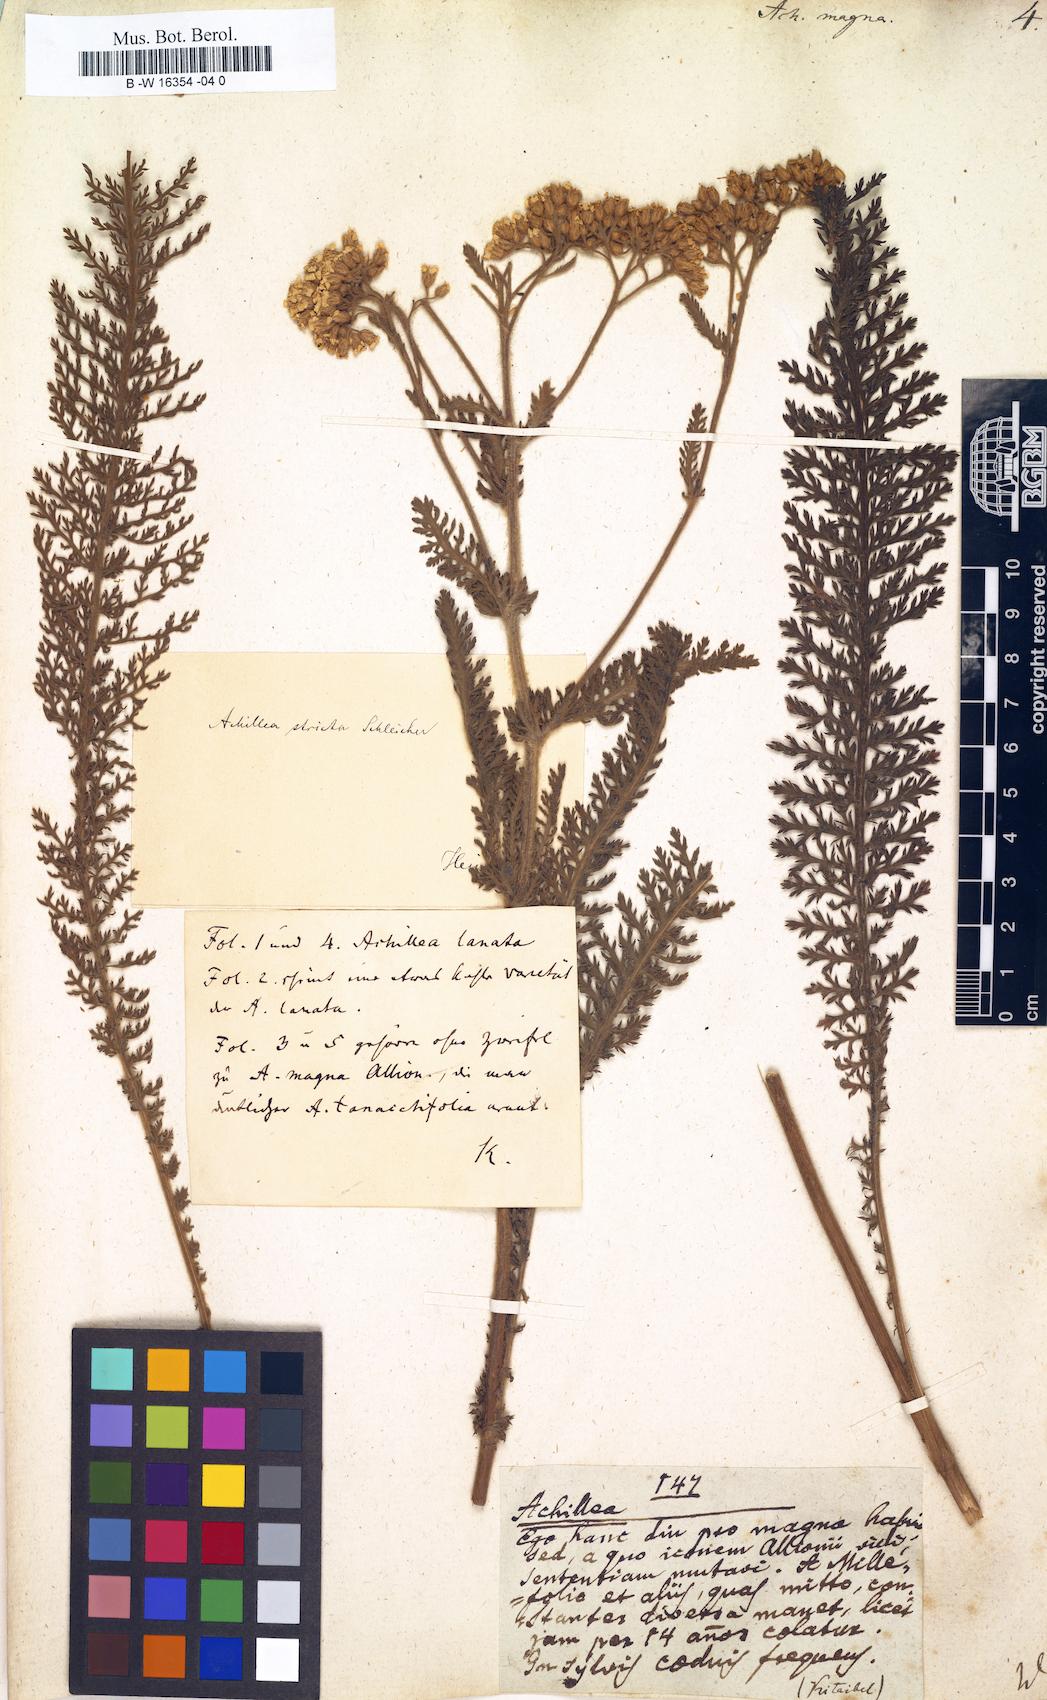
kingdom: Plantae
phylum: Tracheophyta
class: Magnoliopsida
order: Asterales
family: Asteraceae
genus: Achillea
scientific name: Achillea millefolium
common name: Yarrow
